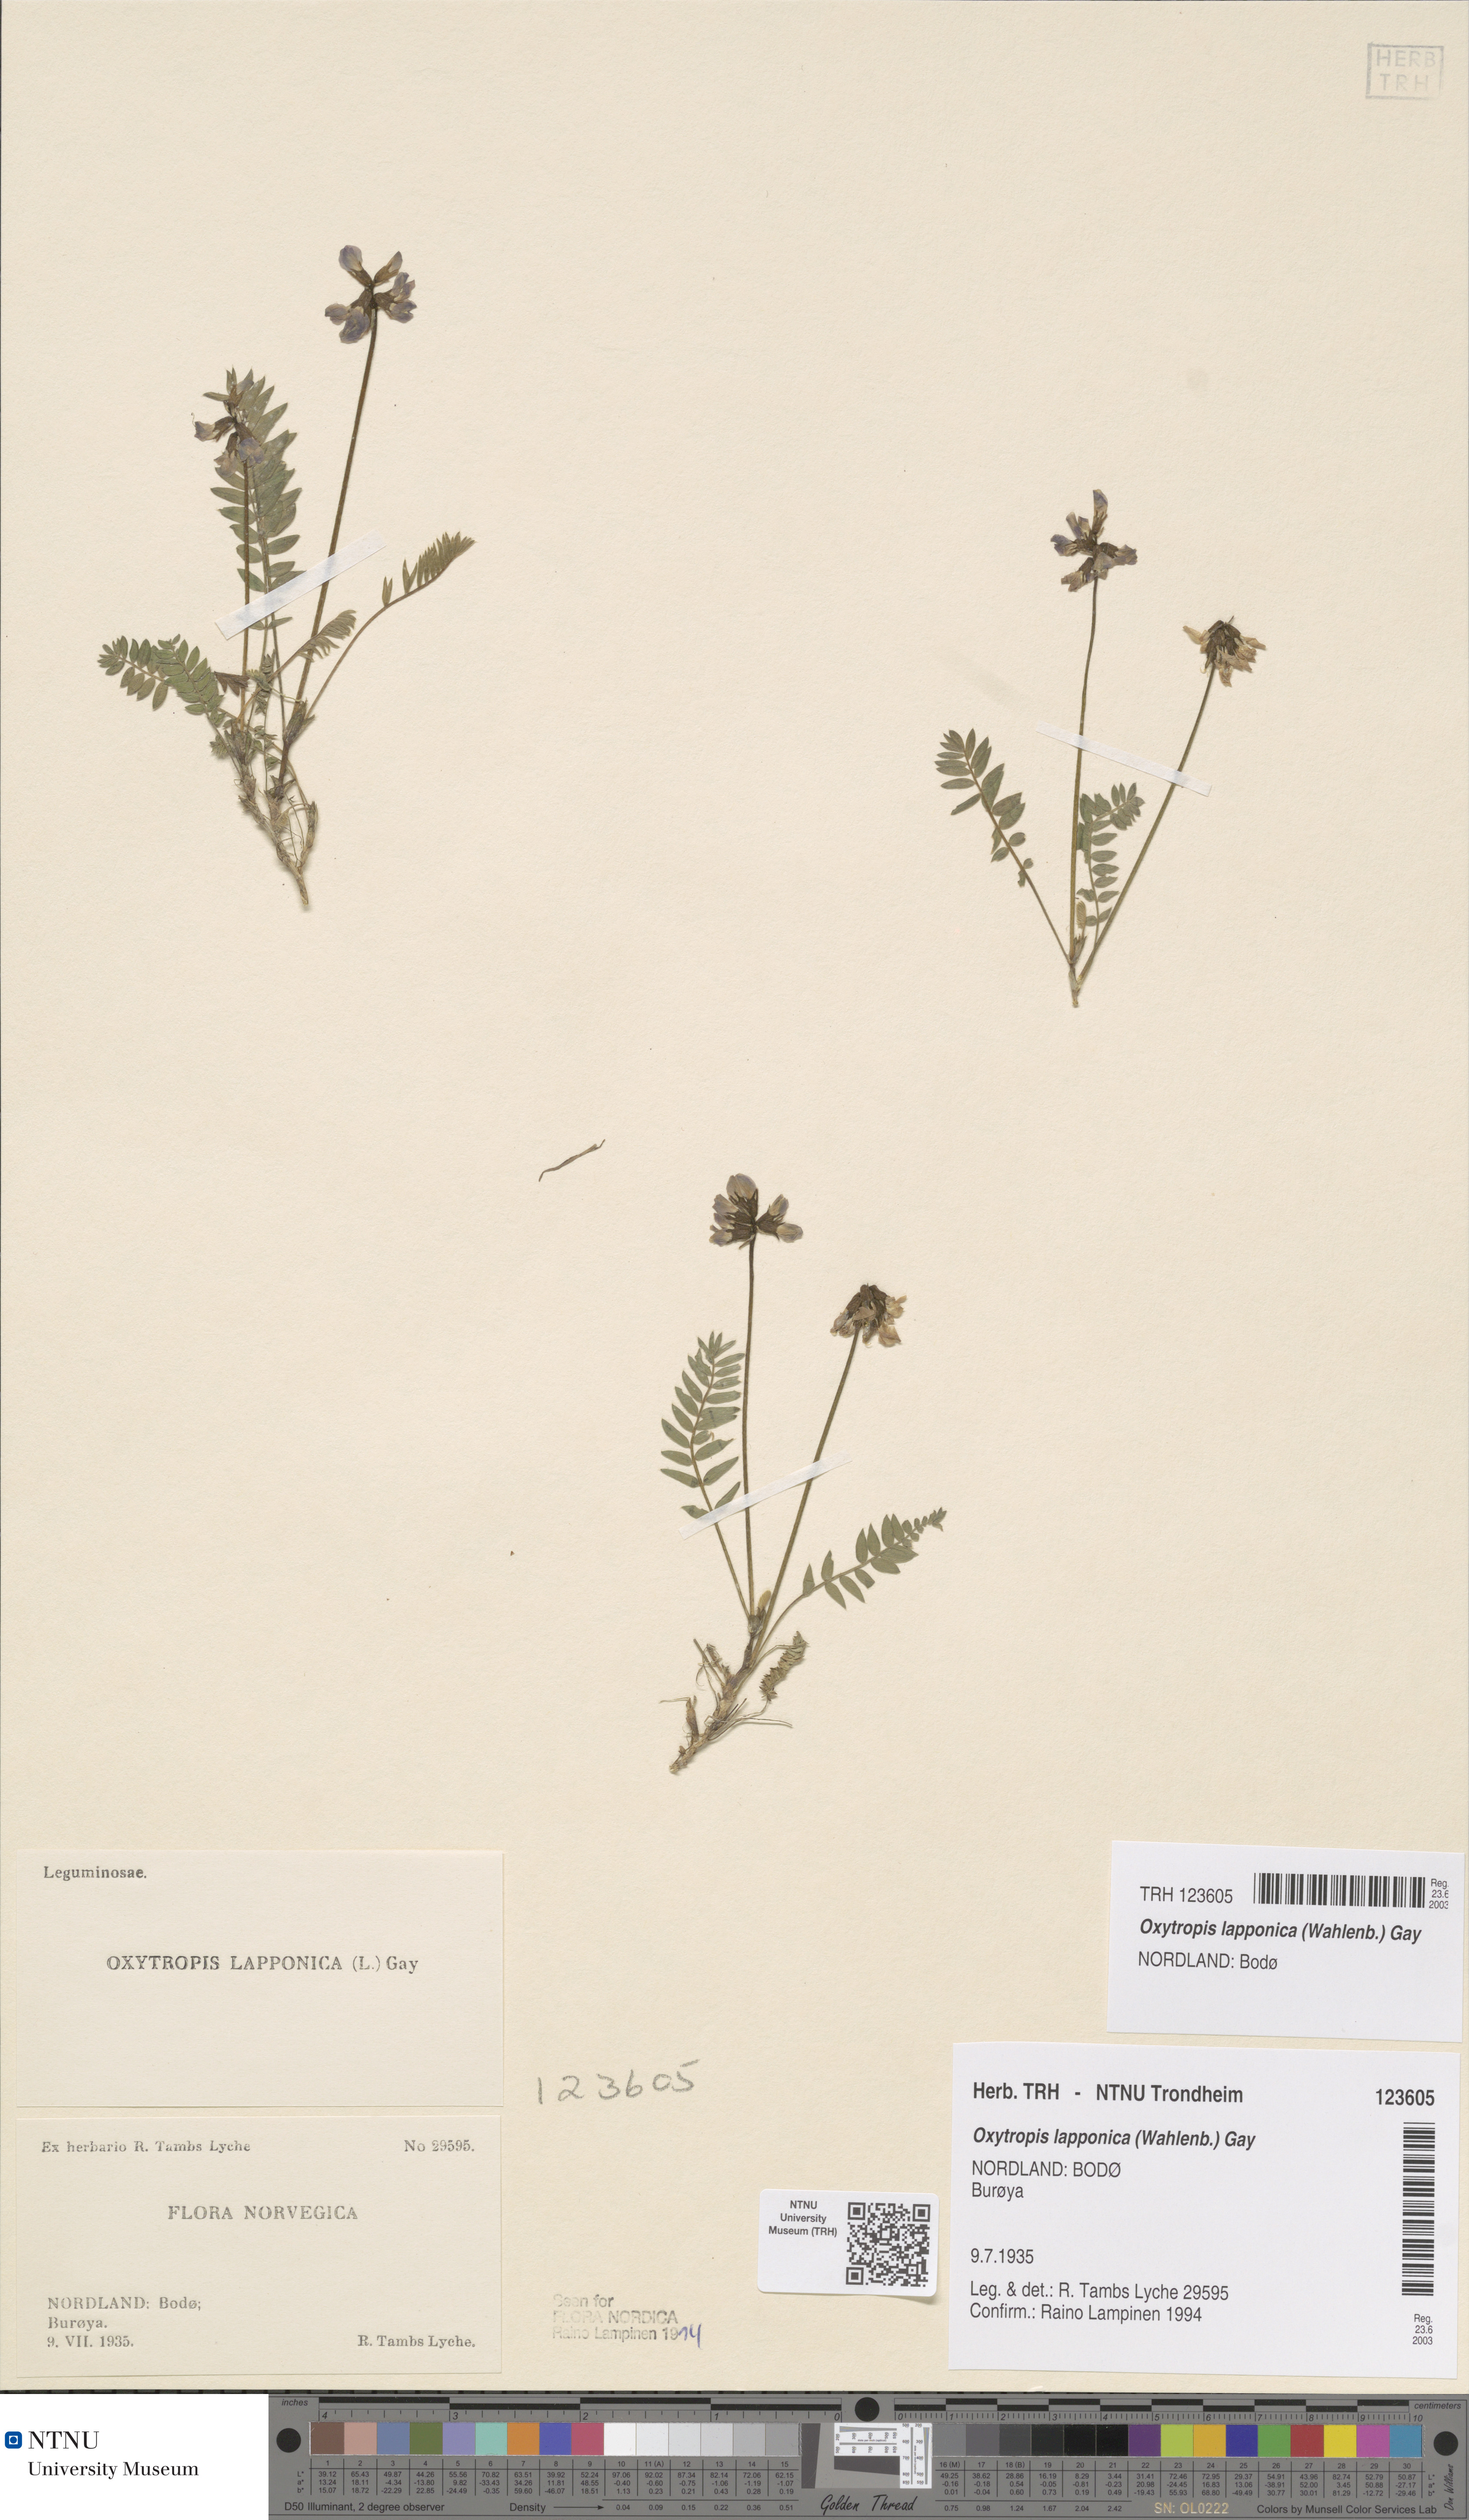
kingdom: Plantae
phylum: Tracheophyta
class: Magnoliopsida
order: Fabales
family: Fabaceae
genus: Oxytropis
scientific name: Oxytropis lapponica
